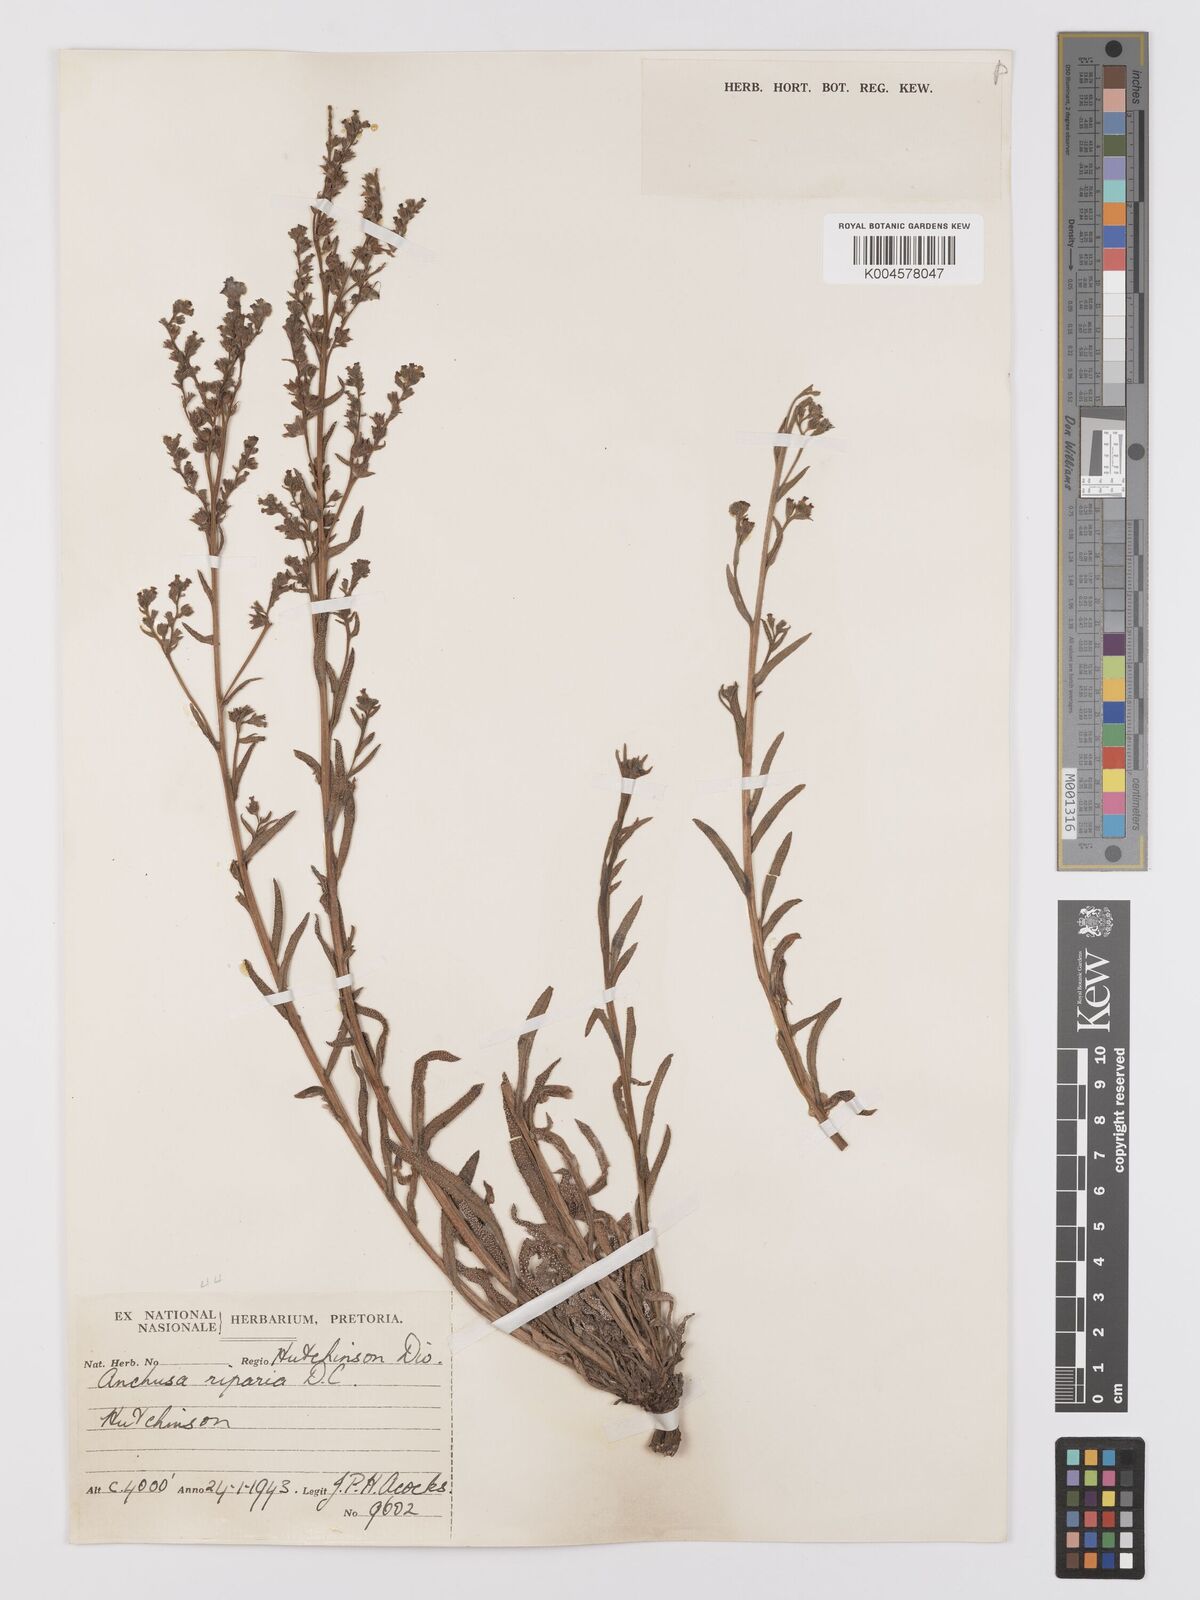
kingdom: Plantae
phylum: Tracheophyta
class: Magnoliopsida
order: Boraginales
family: Boraginaceae
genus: Anchusa
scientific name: Anchusa capensis
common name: Cape bugloss
